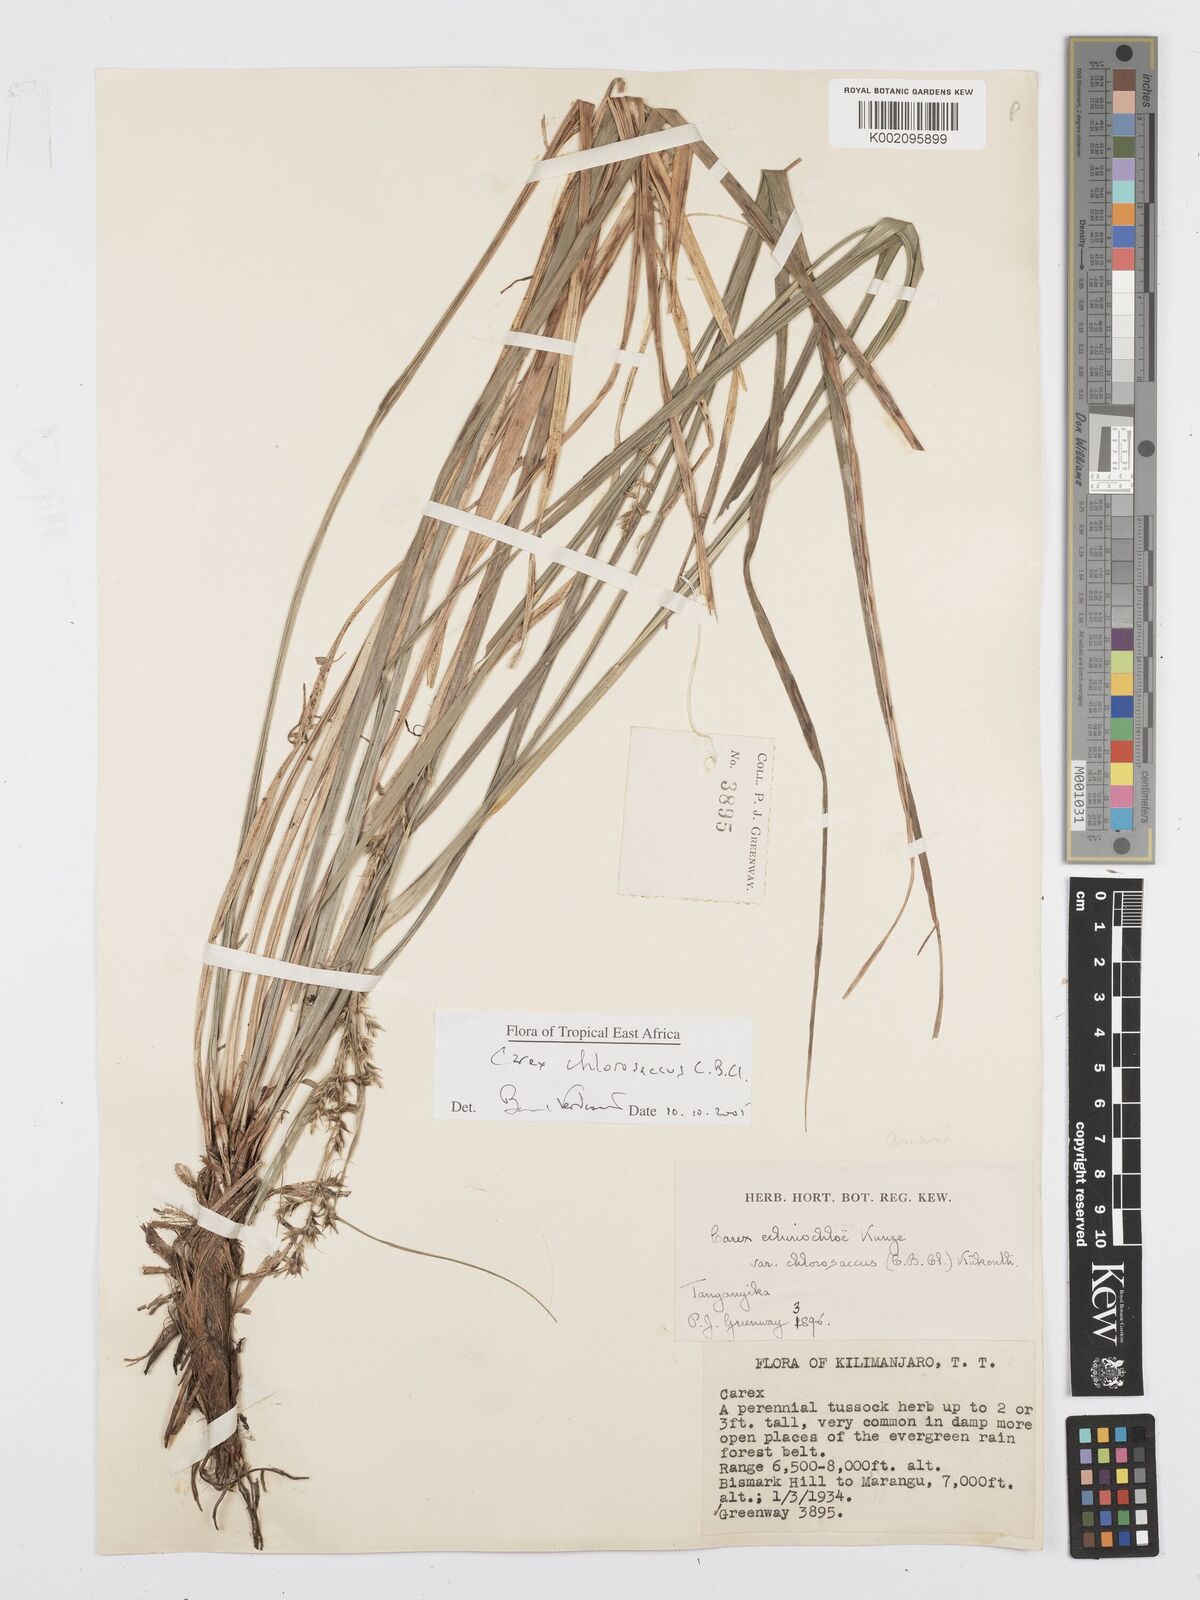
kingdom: Plantae
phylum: Tracheophyta
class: Liliopsida
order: Poales
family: Cyperaceae
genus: Carex
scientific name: Carex chlorosaccus
